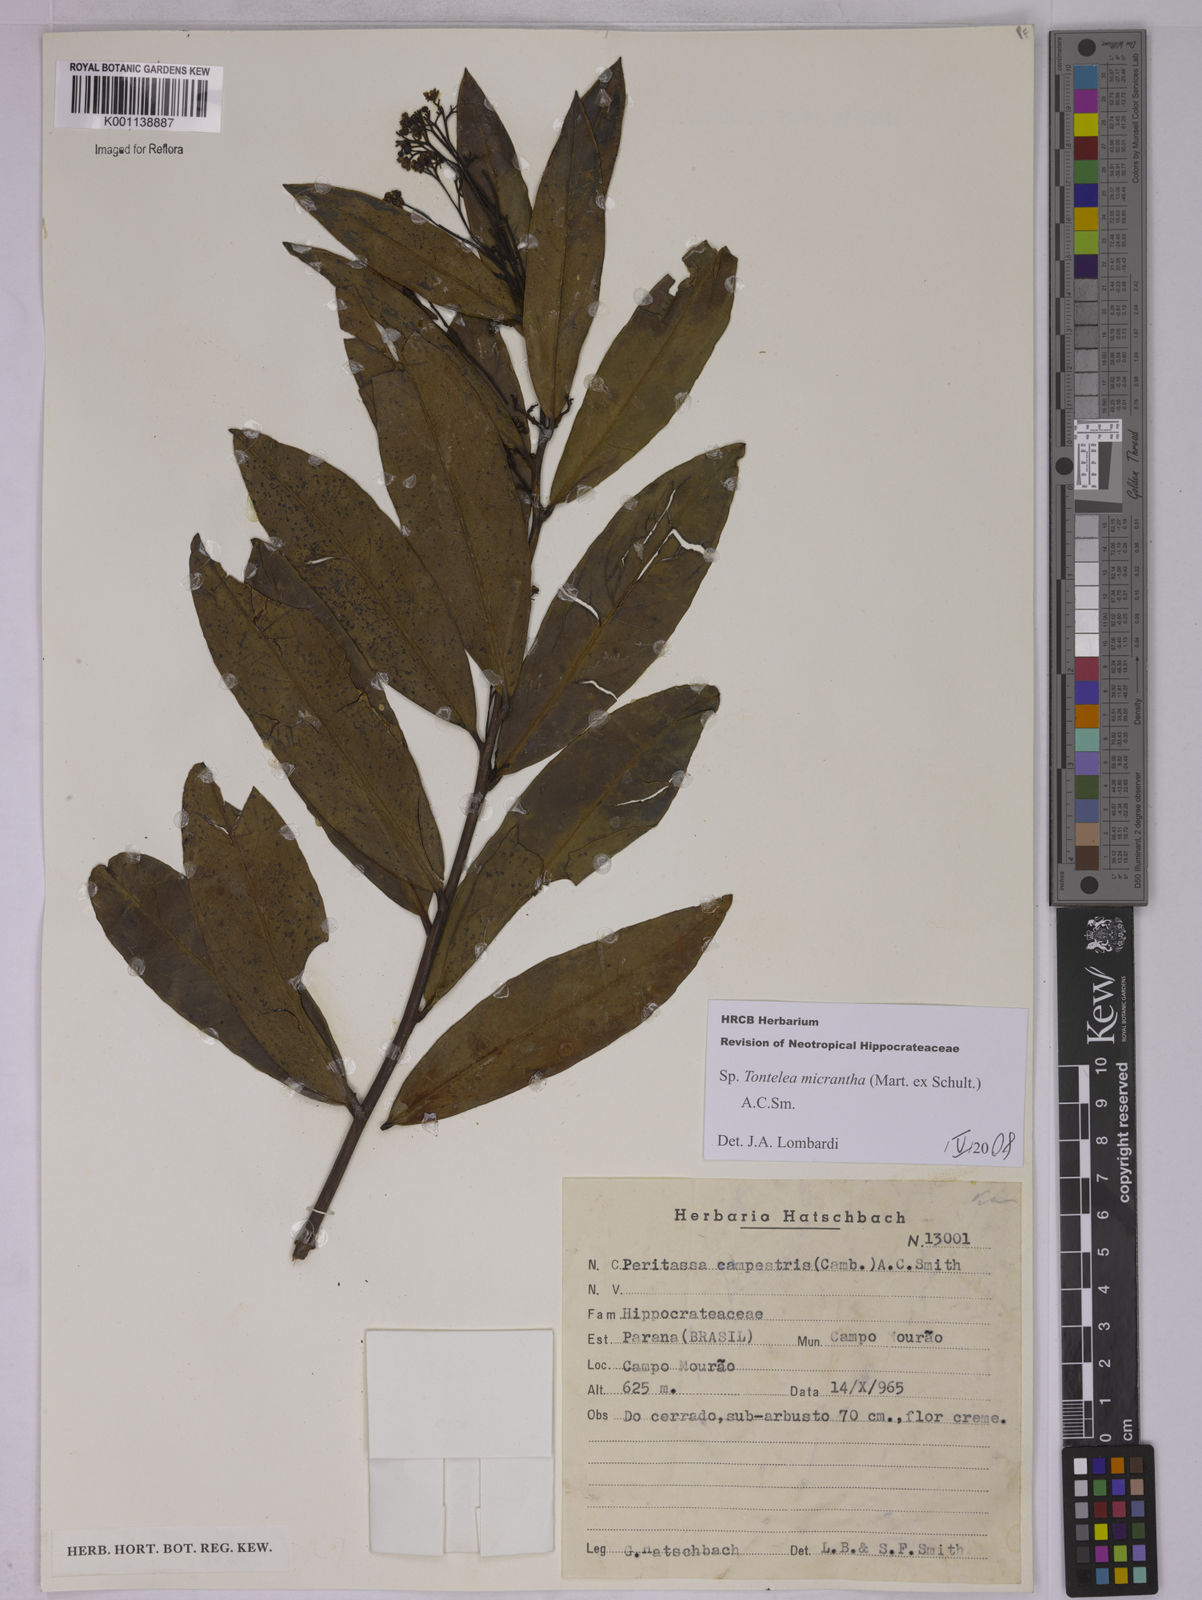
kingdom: Plantae
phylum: Tracheophyta
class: Magnoliopsida
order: Celastrales
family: Celastraceae
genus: Tontelea
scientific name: Tontelea micrantha
